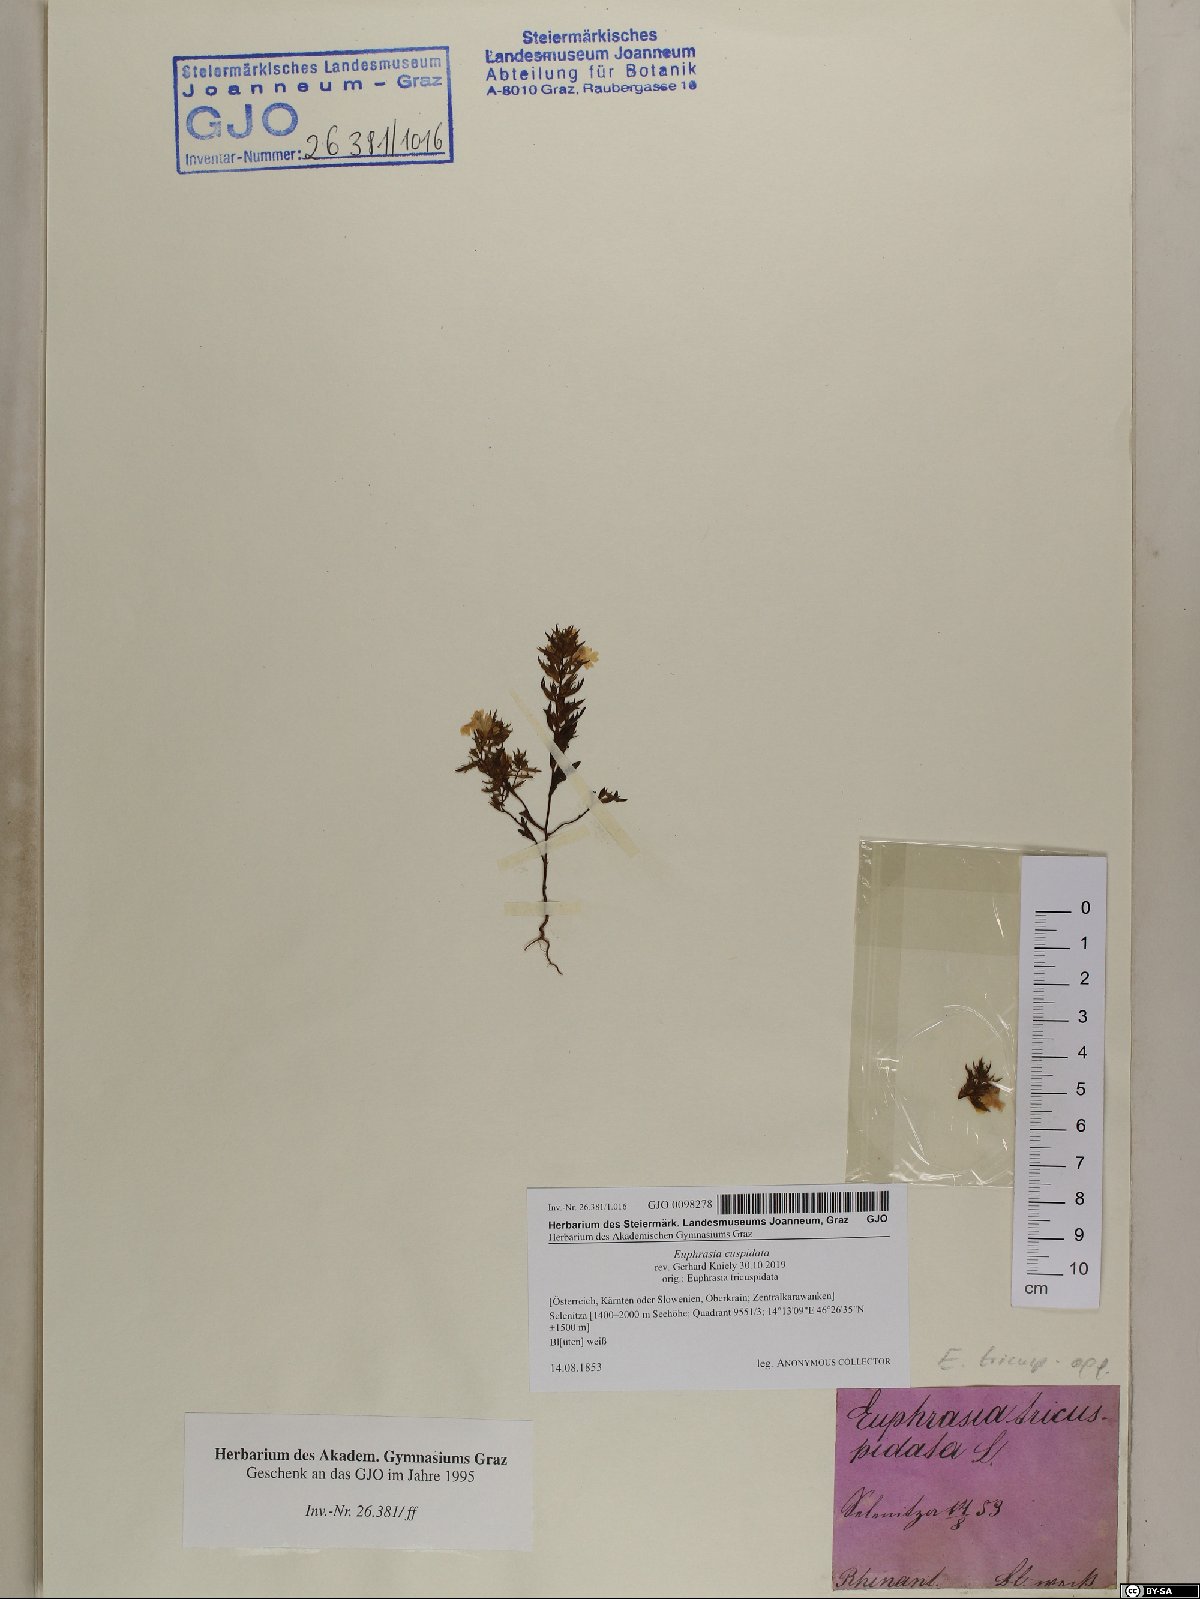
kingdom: Plantae
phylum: Tracheophyta
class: Magnoliopsida
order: Lamiales
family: Orobanchaceae
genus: Euphrasia
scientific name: Euphrasia cuspidata
